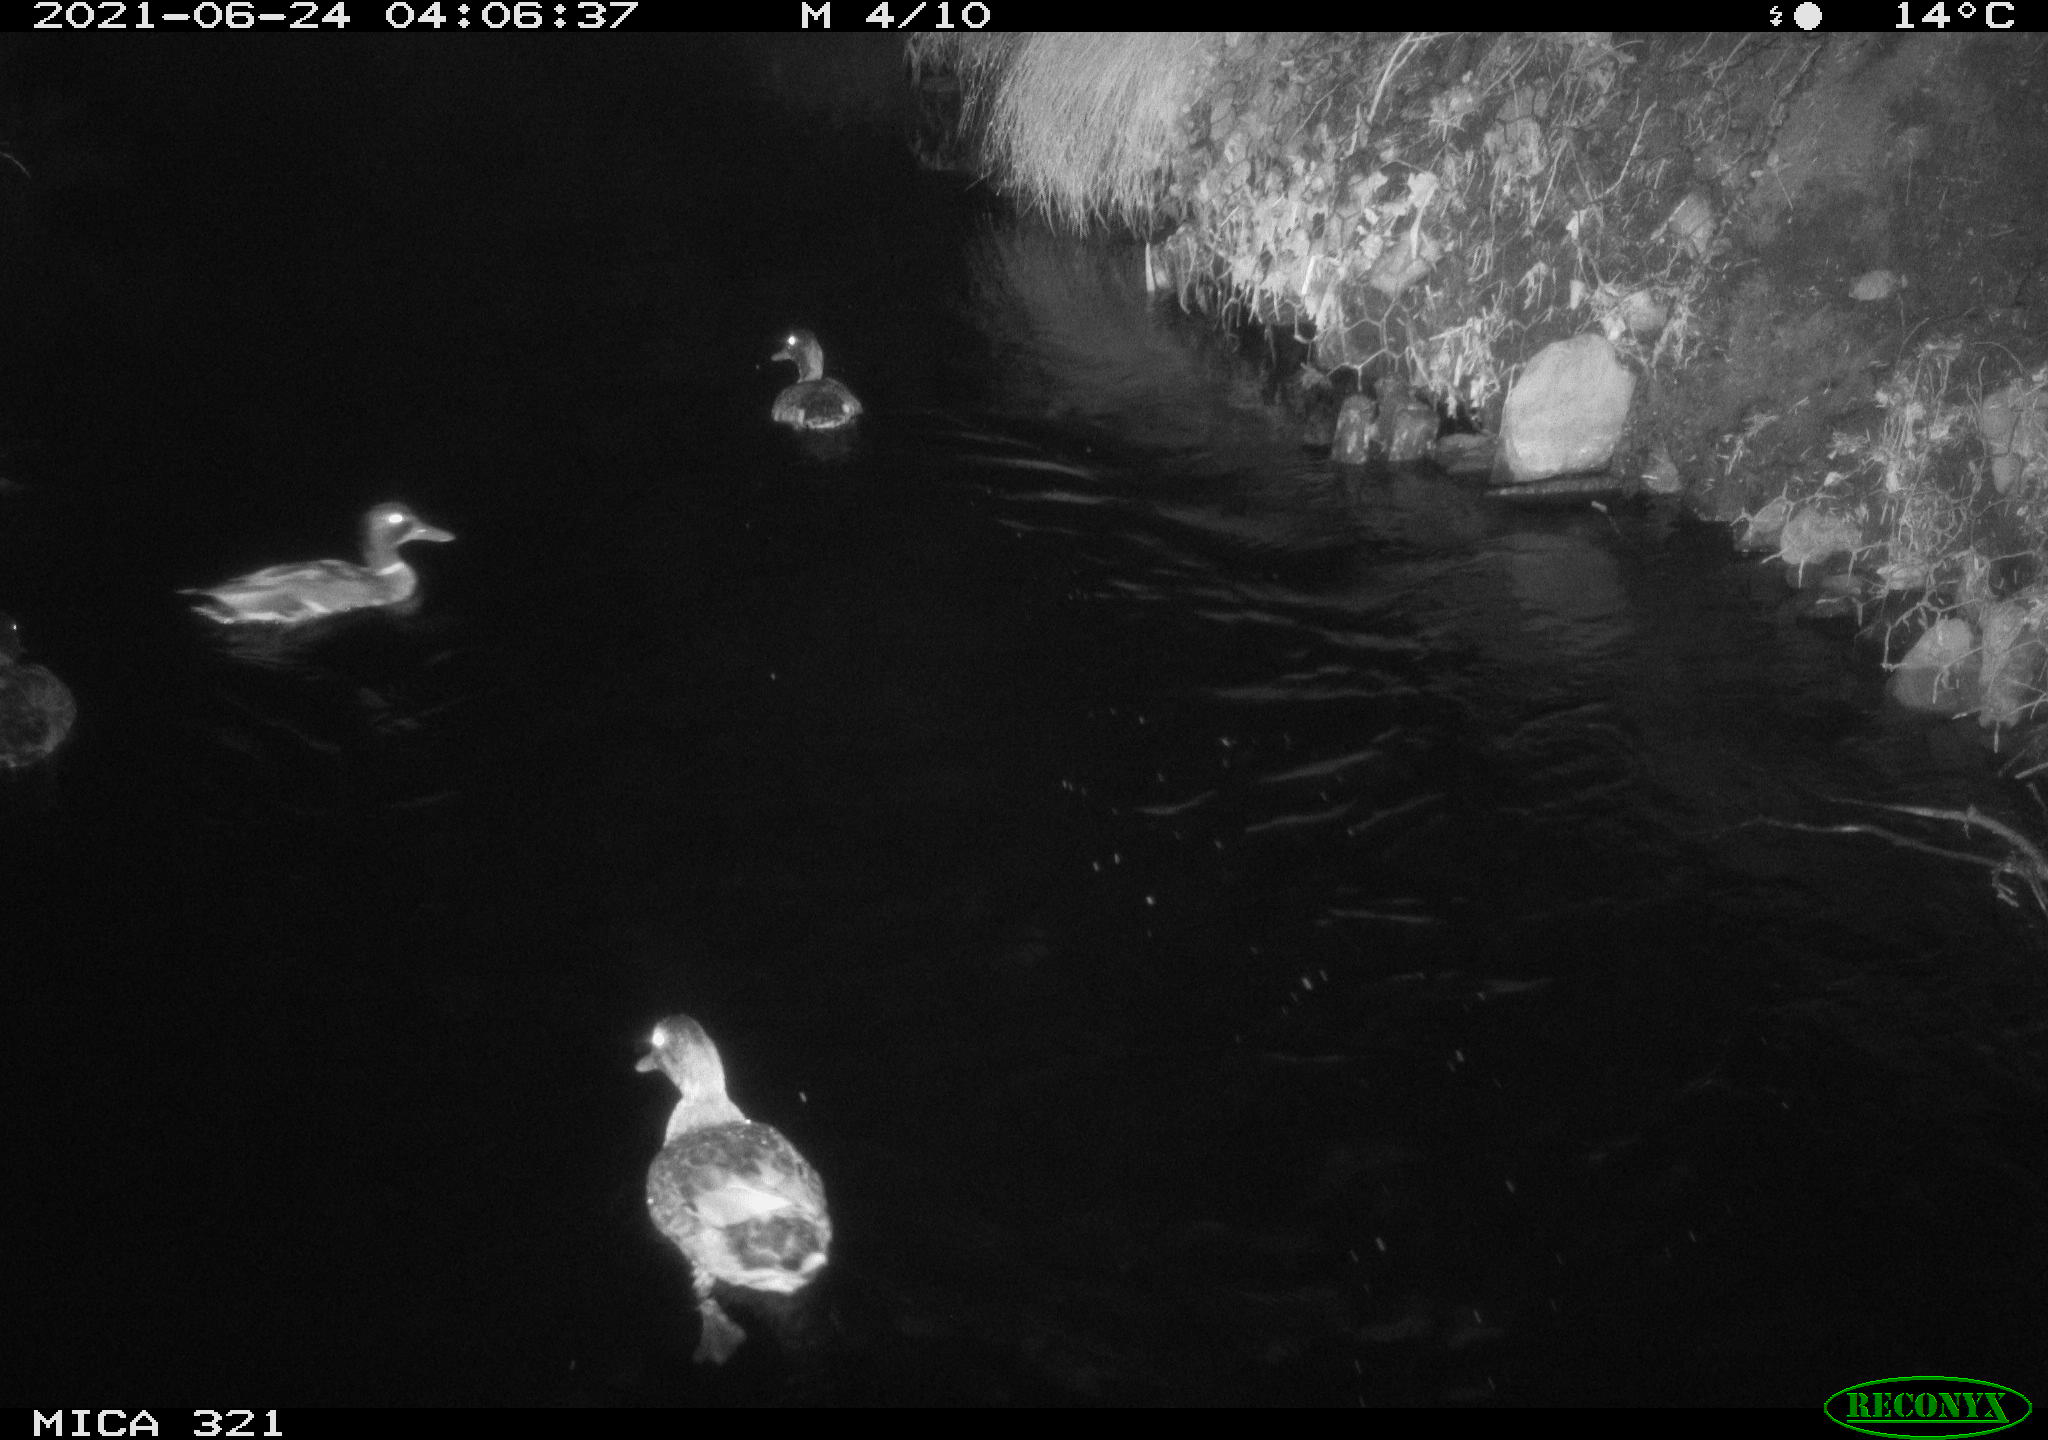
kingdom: Animalia
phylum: Chordata
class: Aves
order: Anseriformes
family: Anatidae
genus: Anas
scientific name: Anas platyrhynchos
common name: Mallard
